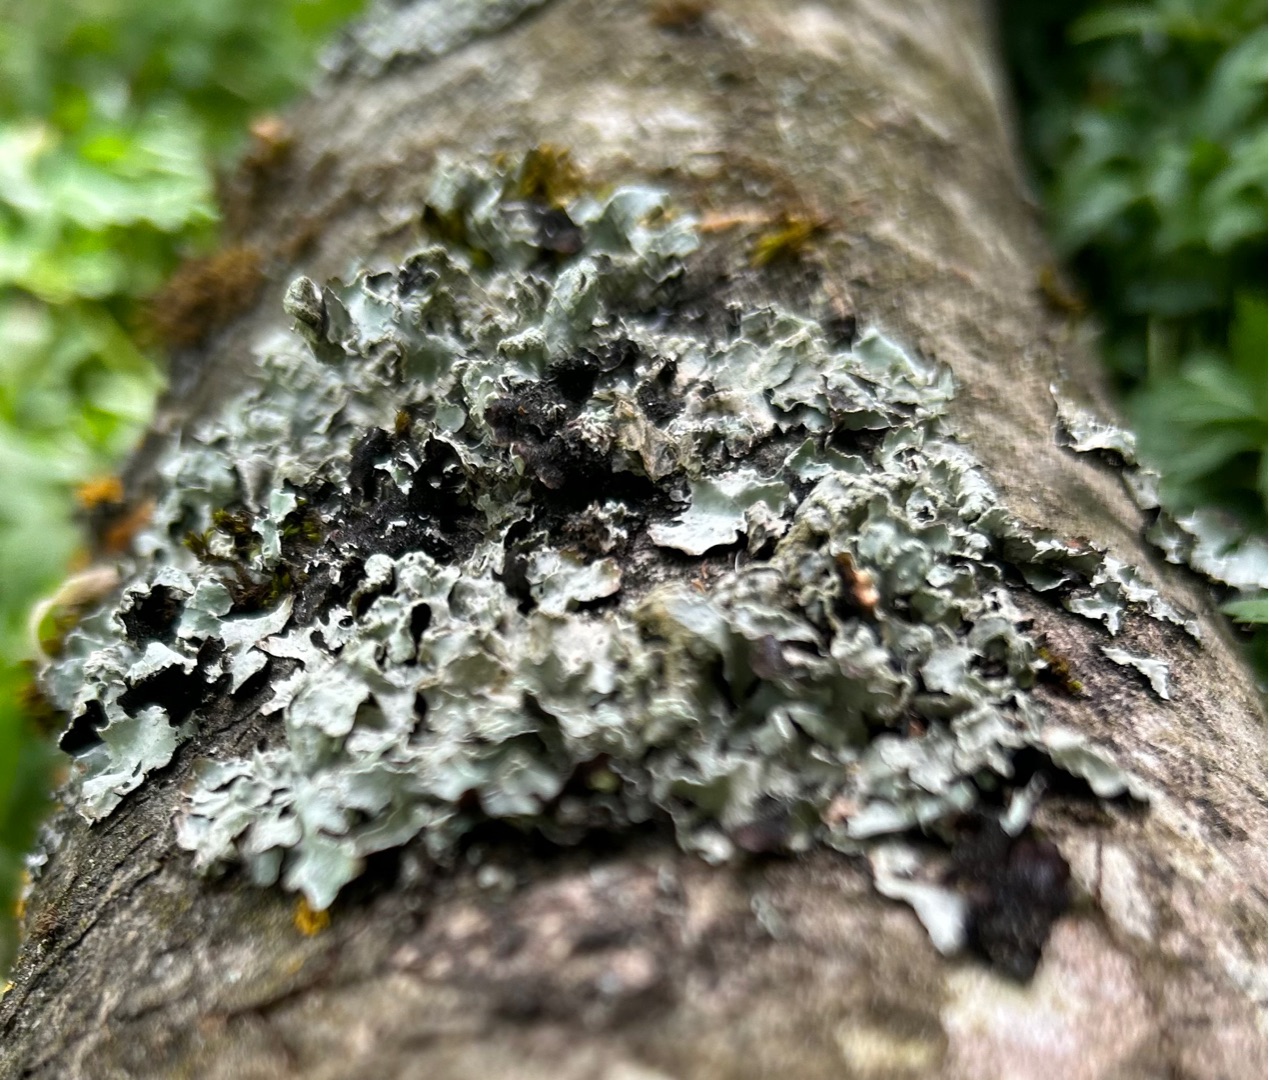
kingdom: Fungi
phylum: Ascomycota
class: Lecanoromycetes
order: Lecanorales
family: Parmeliaceae
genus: Parmelia
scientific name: Parmelia sulcata
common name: Rynket skållav
